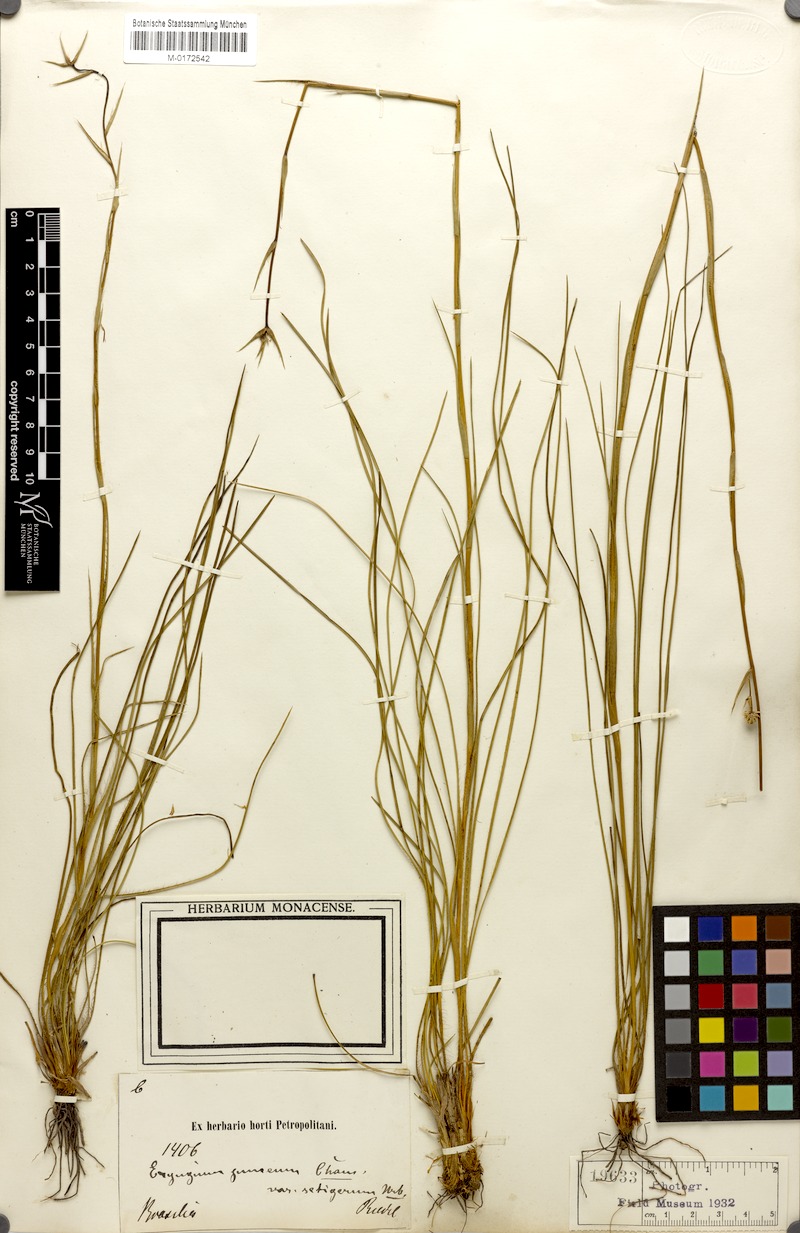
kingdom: Plantae
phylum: Tracheophyta
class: Magnoliopsida
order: Apiales
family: Apiaceae
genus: Eryngium
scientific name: Eryngium junceum
